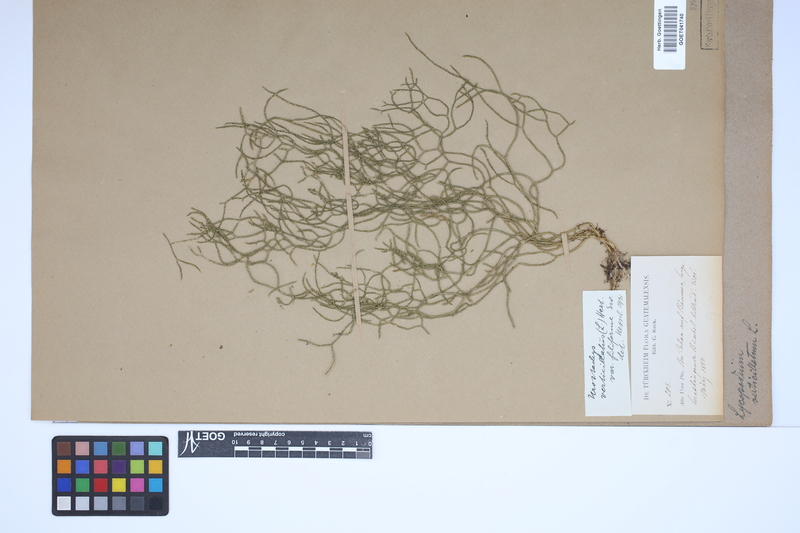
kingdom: Plantae
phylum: Tracheophyta
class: Lycopodiopsida
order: Lycopodiales
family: Lycopodiaceae
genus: Phlegmariurus
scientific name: Phlegmariurus verticillatus
